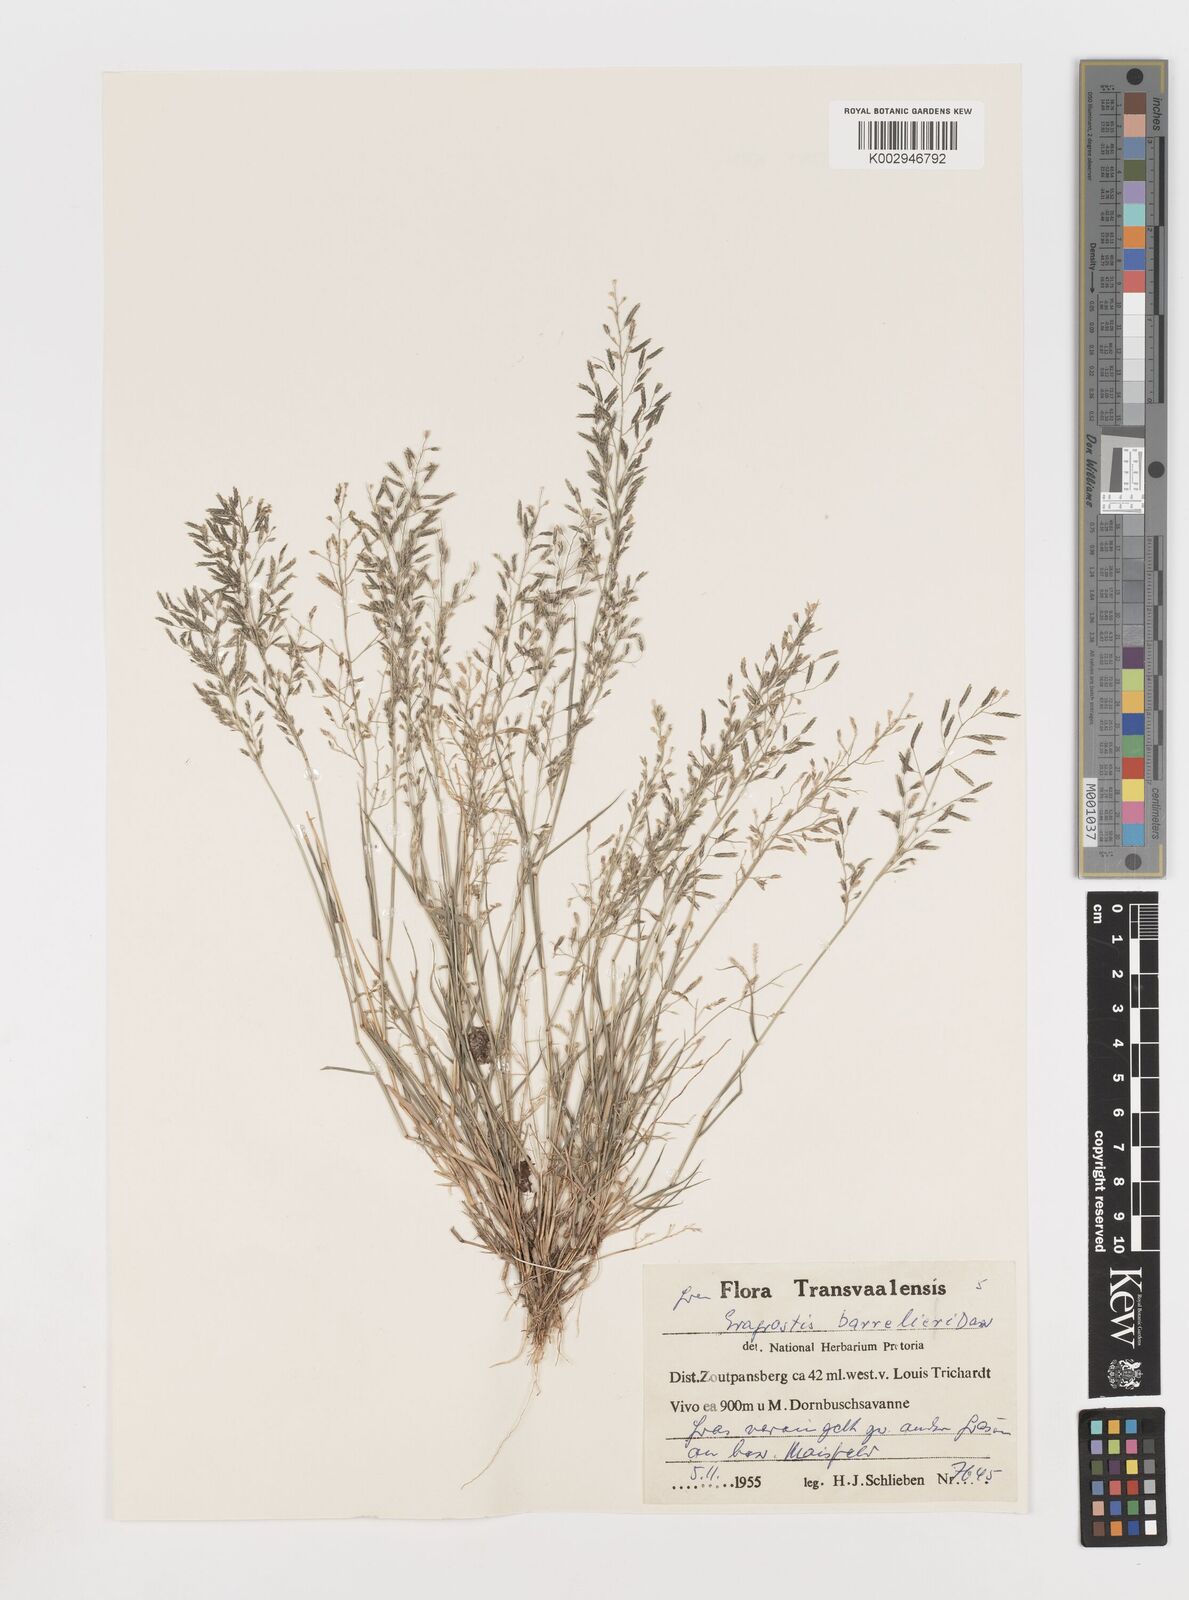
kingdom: Plantae
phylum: Tracheophyta
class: Liliopsida
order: Poales
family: Poaceae
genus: Eragrostis
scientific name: Eragrostis barrelieri
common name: Mediterranean lovegrass
